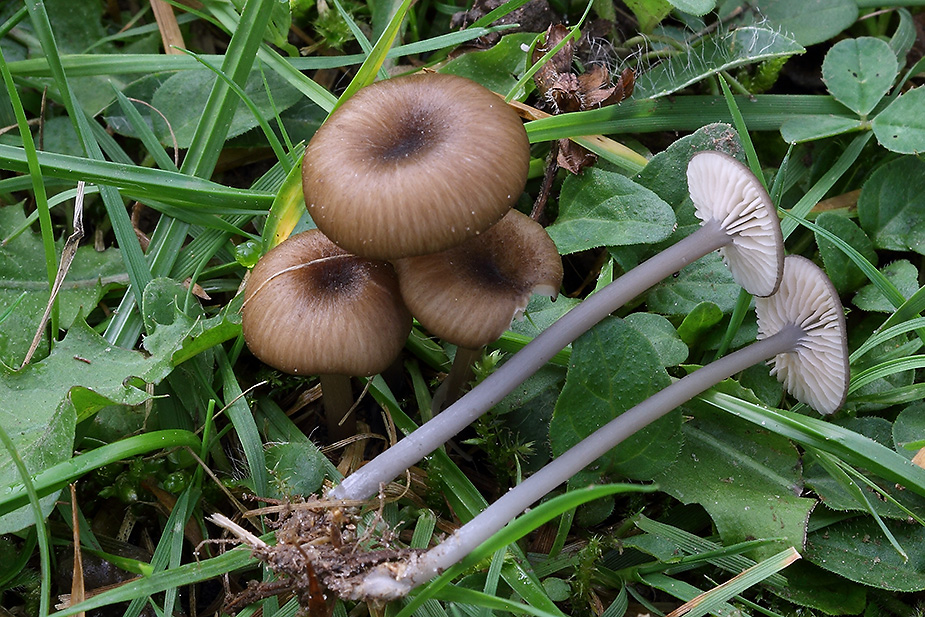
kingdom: Fungi
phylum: Basidiomycota
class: Agaricomycetes
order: Agaricales
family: Entolomataceae
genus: Entoloma
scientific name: Entoloma allospermum
